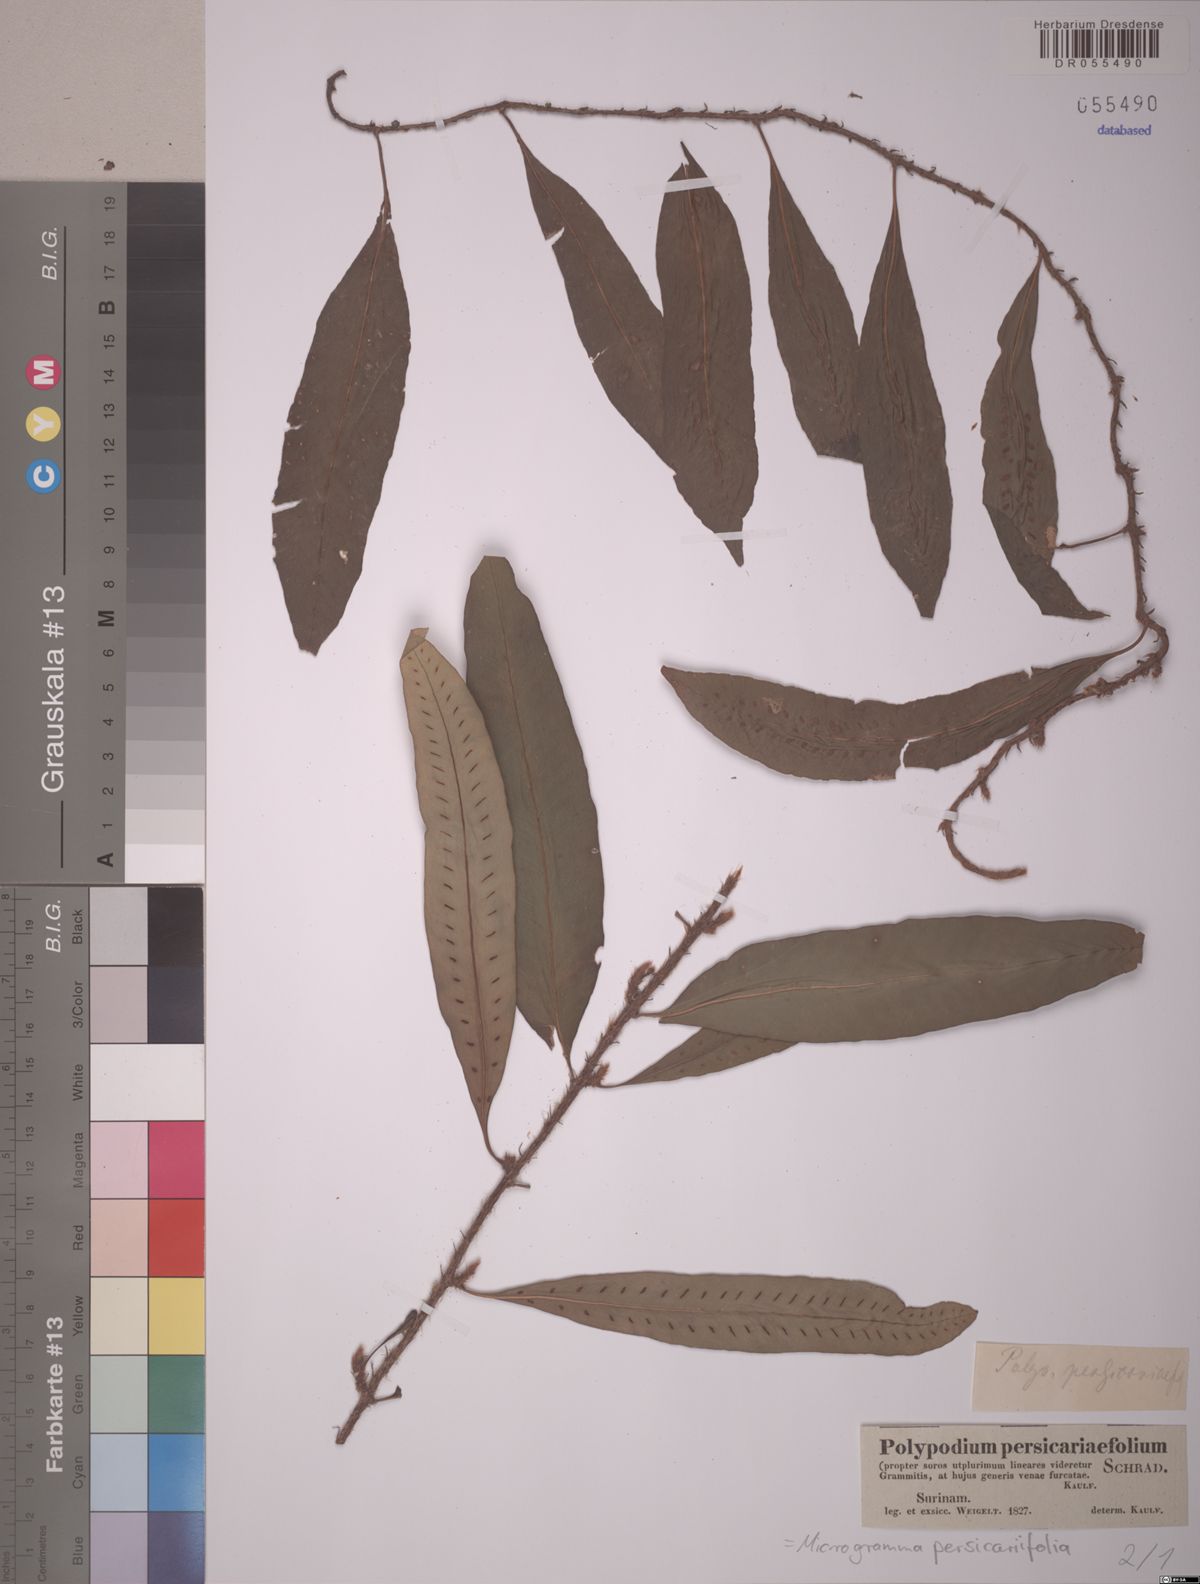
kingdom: Plantae
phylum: Tracheophyta
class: Polypodiopsida
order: Polypodiales
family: Polypodiaceae
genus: Microgramma
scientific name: Microgramma persicariifolia
